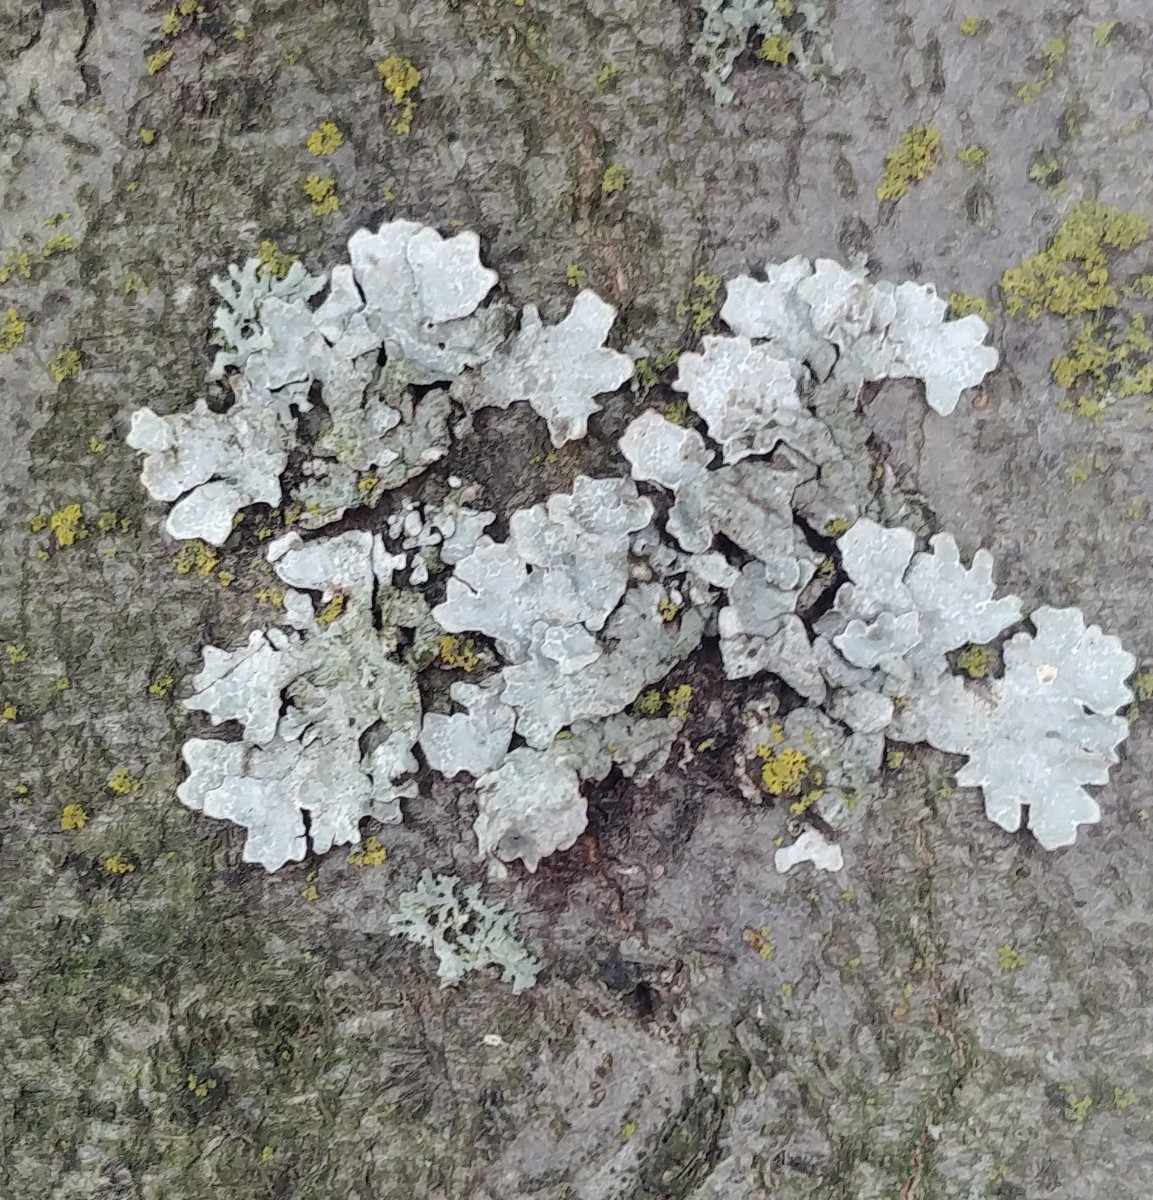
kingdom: Fungi
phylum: Ascomycota
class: Lecanoromycetes
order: Lecanorales
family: Parmeliaceae
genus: Parmelia
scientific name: Parmelia sulcata
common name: rynket skållav
